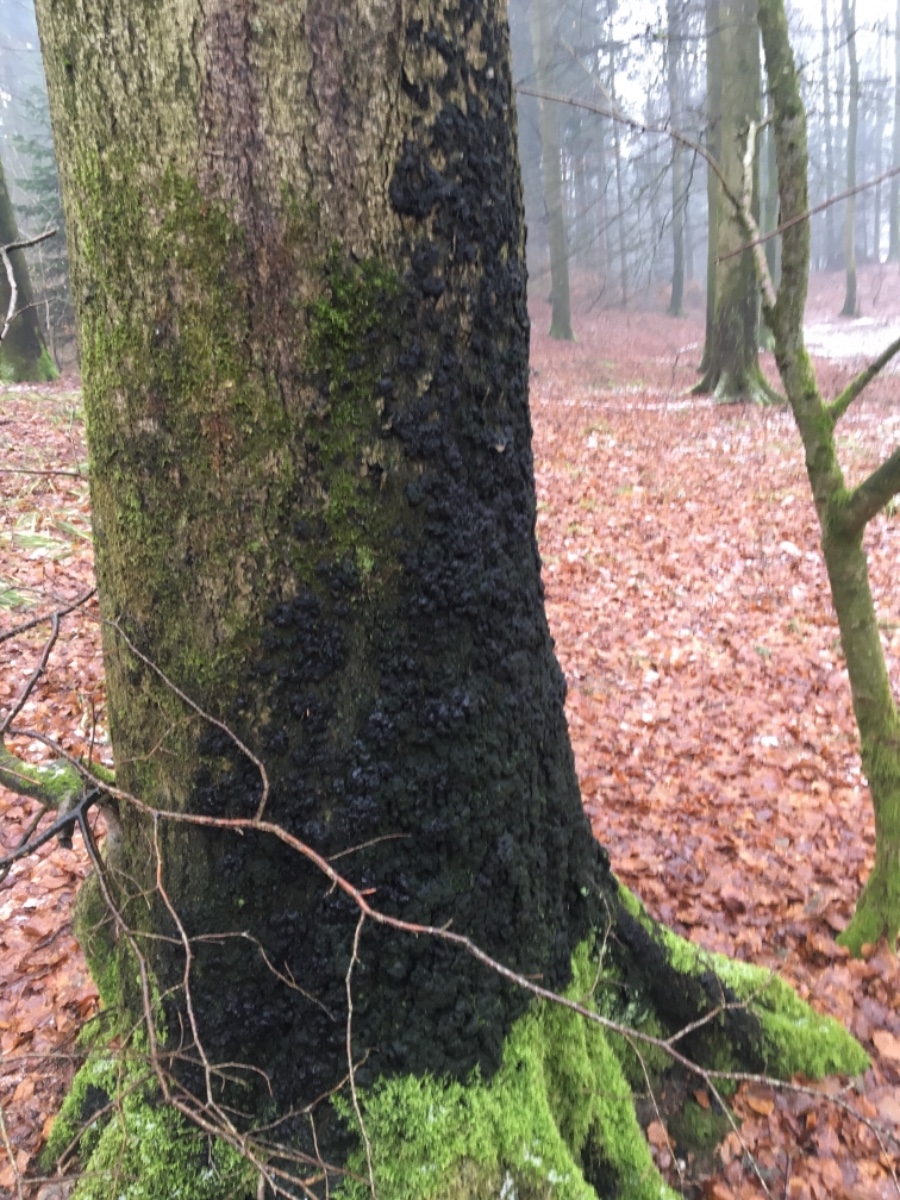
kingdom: Fungi
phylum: Ascomycota
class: Sordariomycetes
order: Xylariales
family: Xylariaceae
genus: Kretzschmaria
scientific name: Kretzschmaria deusta
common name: stor kulsvamp
